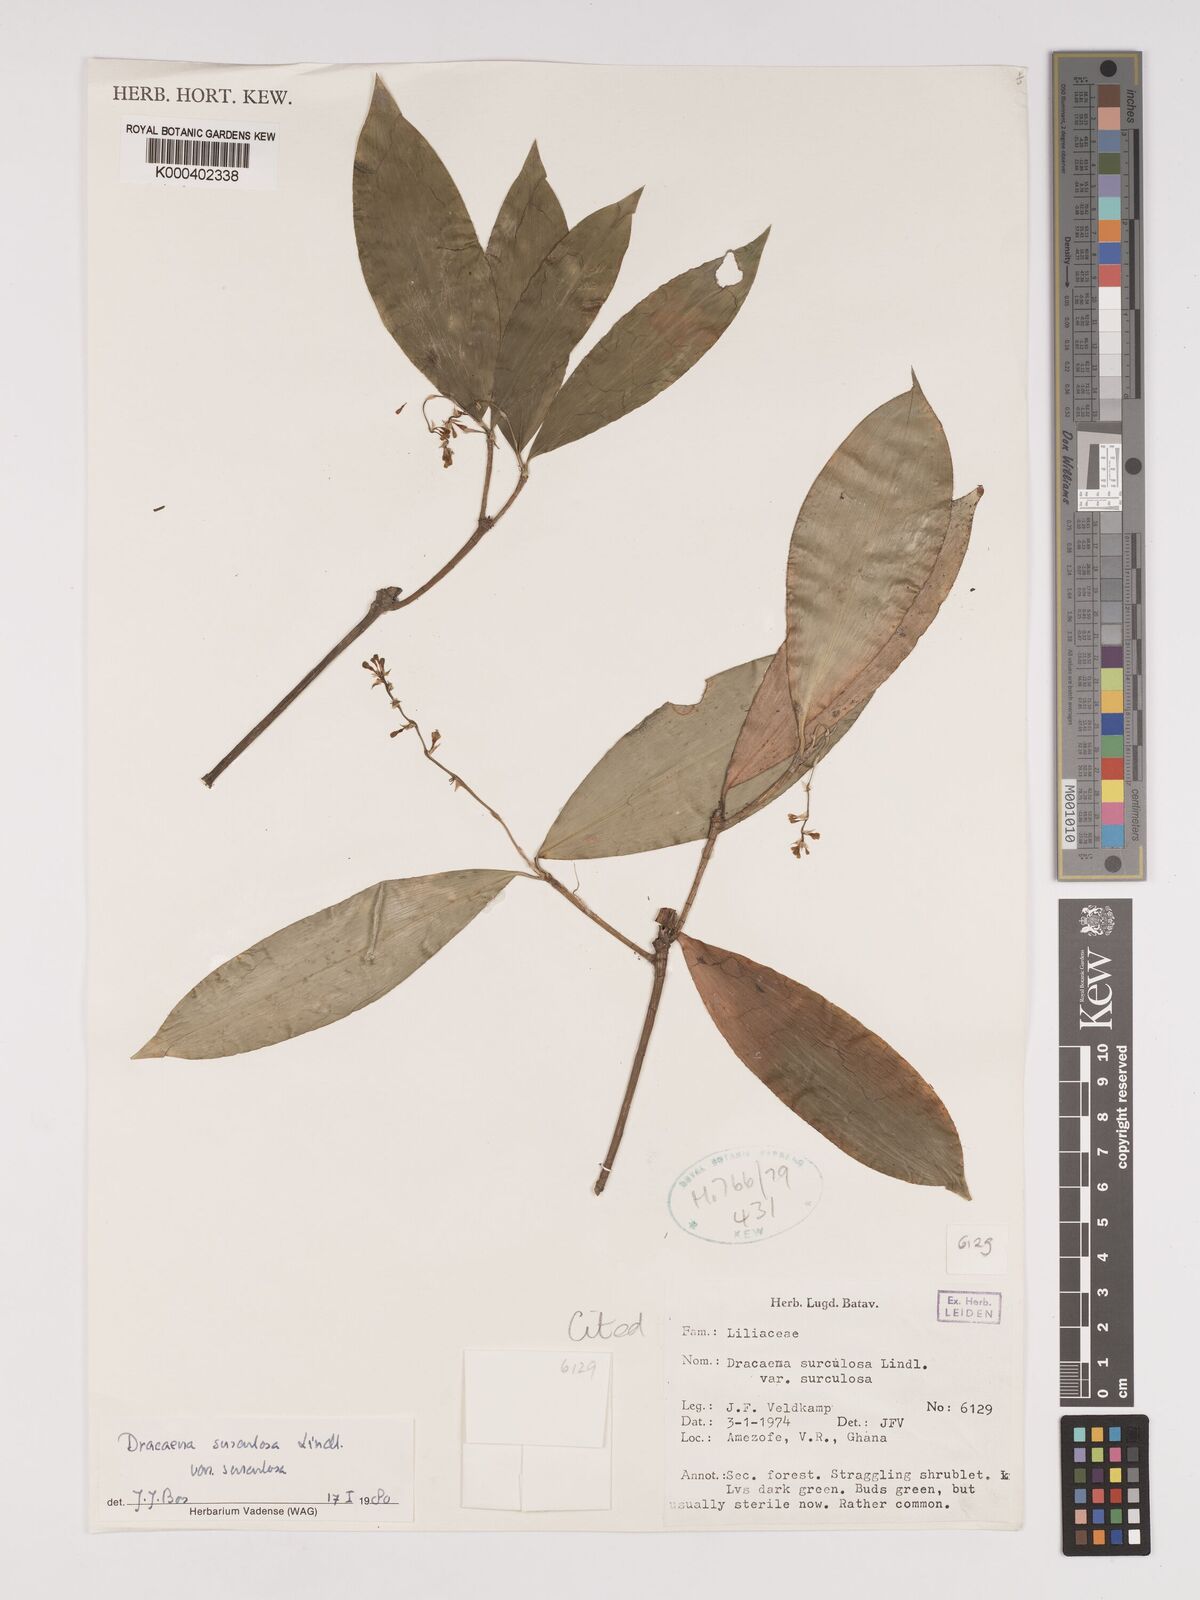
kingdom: Plantae
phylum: Tracheophyta
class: Liliopsida
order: Asparagales
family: Asparagaceae
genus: Dracaena
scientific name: Dracaena surculosa
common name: Spotted dracaena
